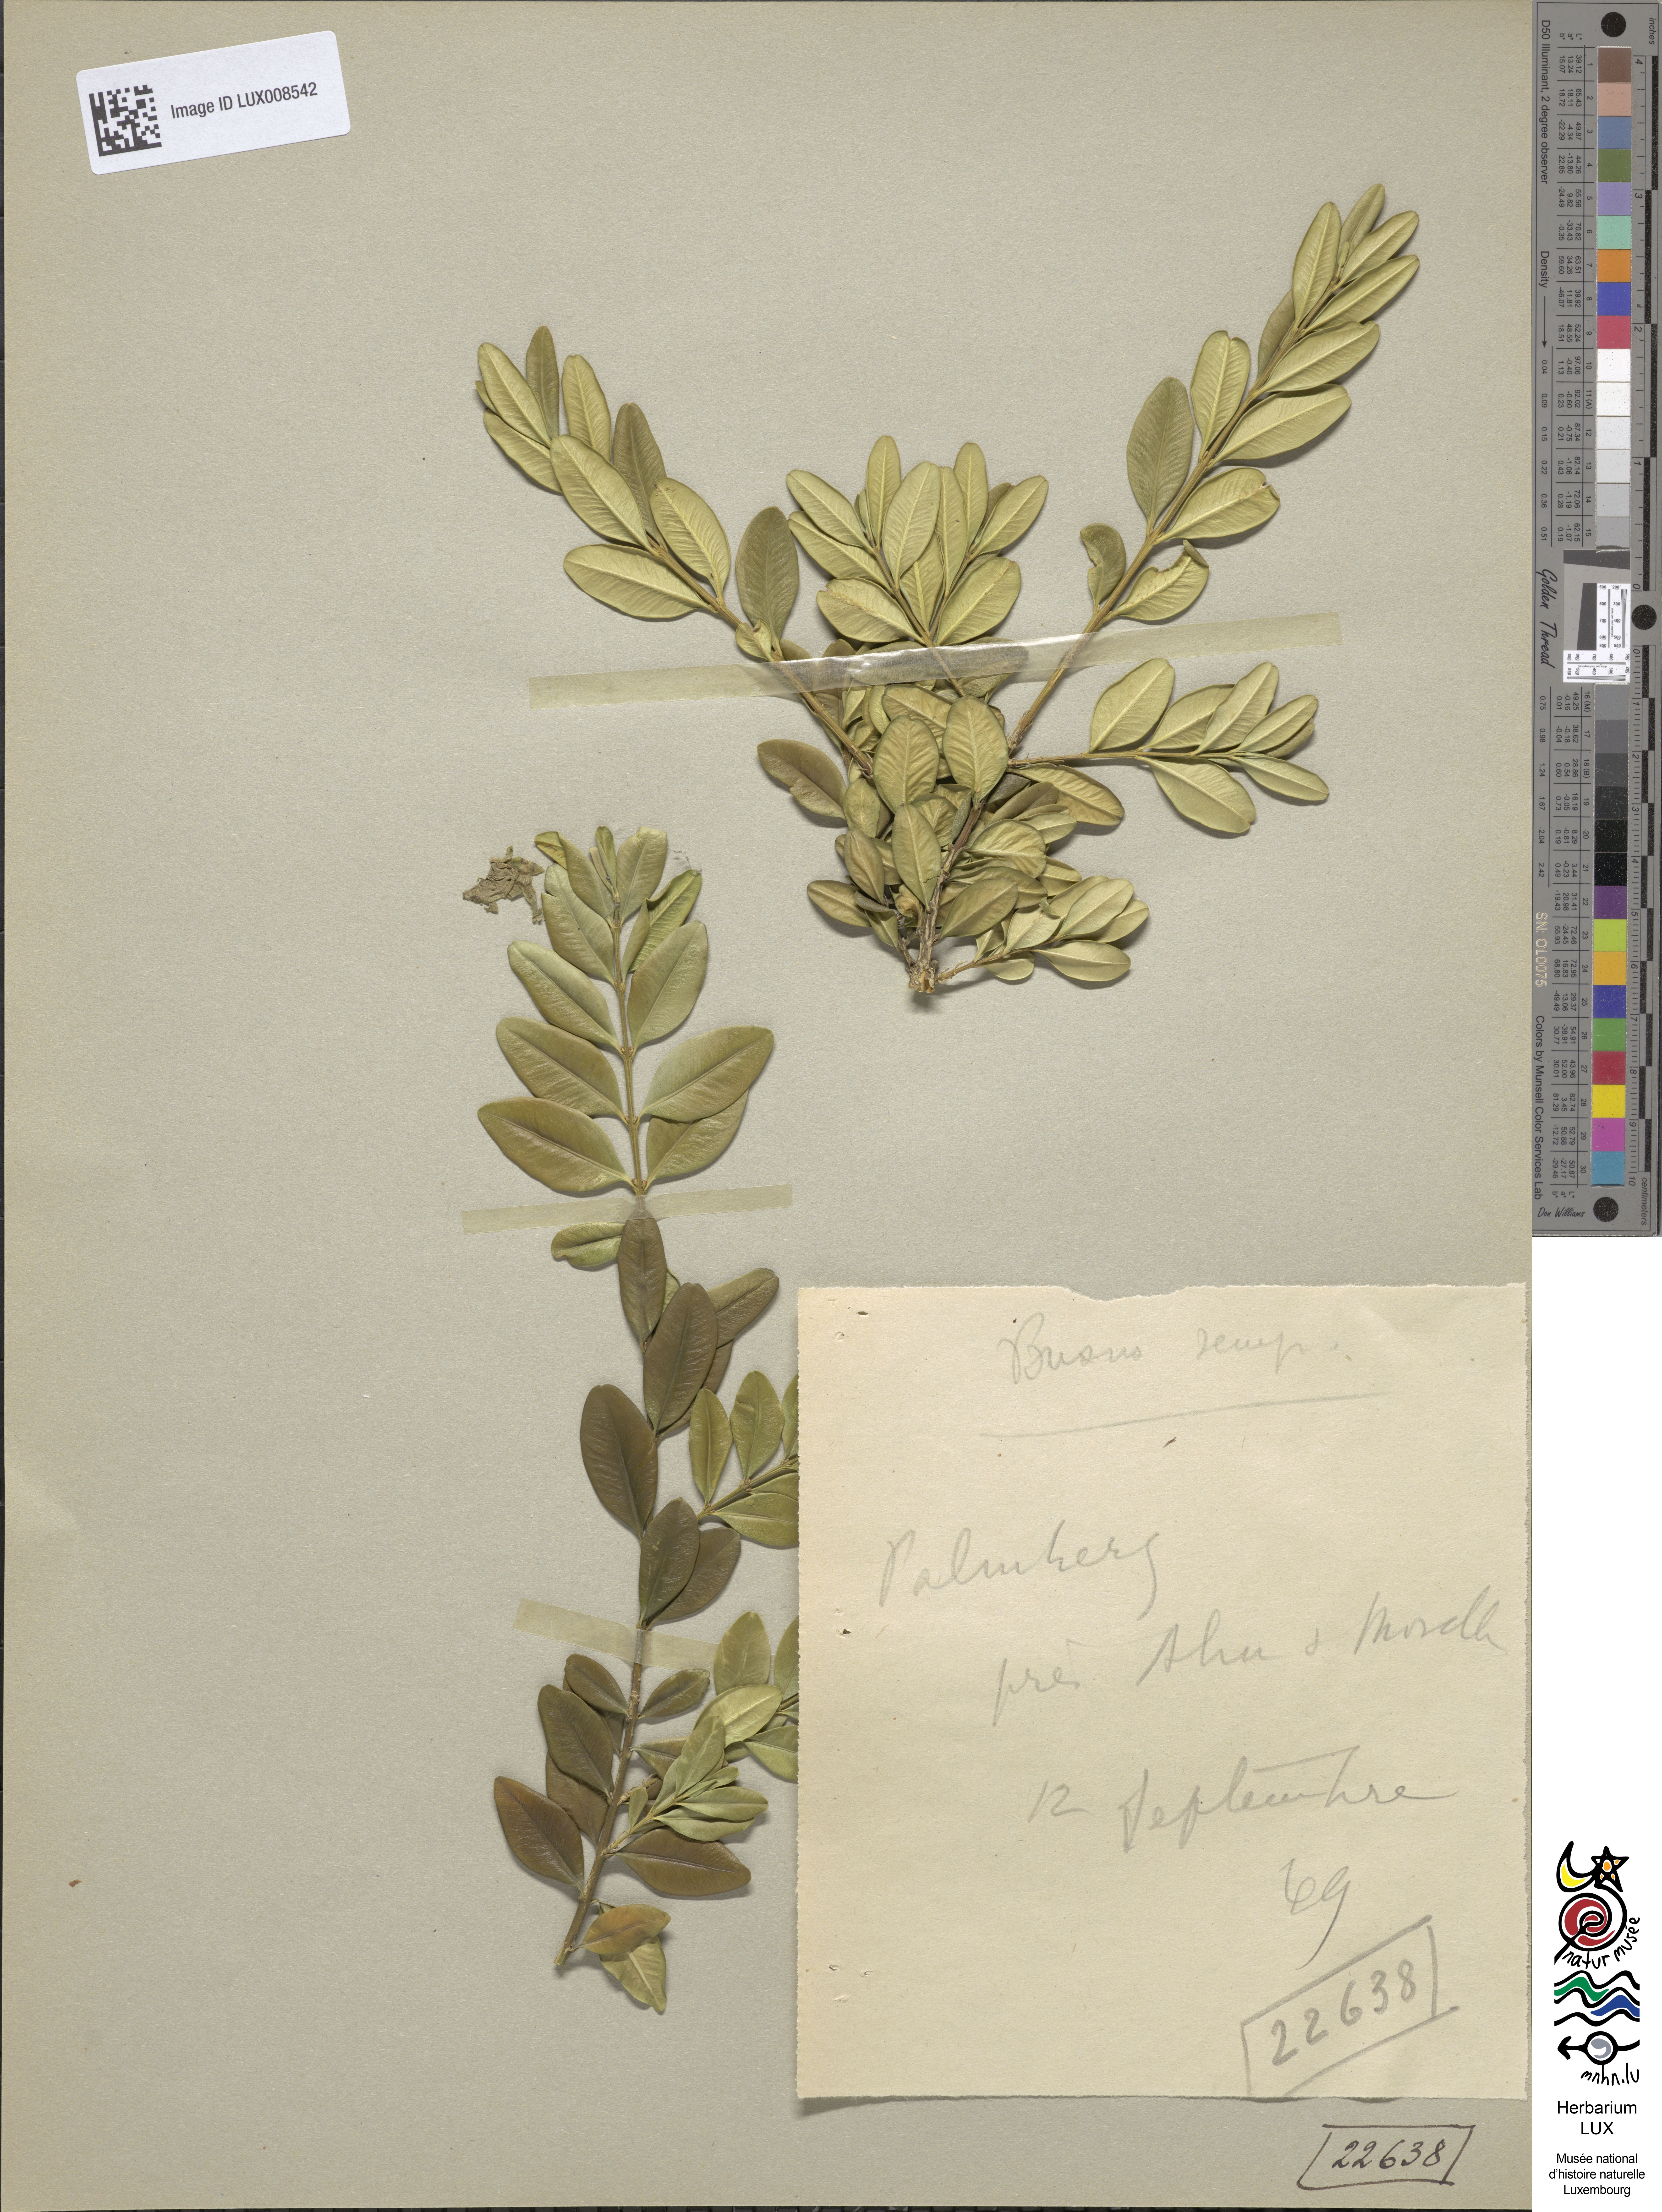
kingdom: Plantae
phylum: Tracheophyta
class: Magnoliopsida
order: Buxales
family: Buxaceae
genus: Buxus
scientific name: Buxus sempervirens
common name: Box
